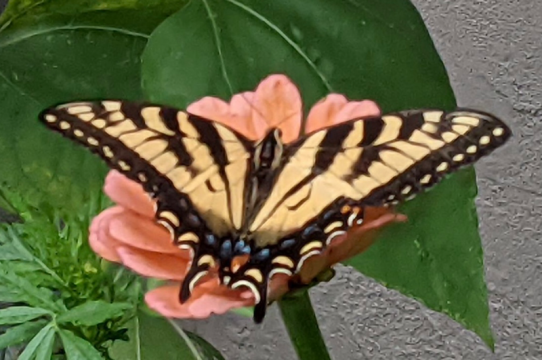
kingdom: Animalia
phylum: Arthropoda
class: Insecta
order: Lepidoptera
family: Papilionidae
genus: Pterourus
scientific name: Pterourus
